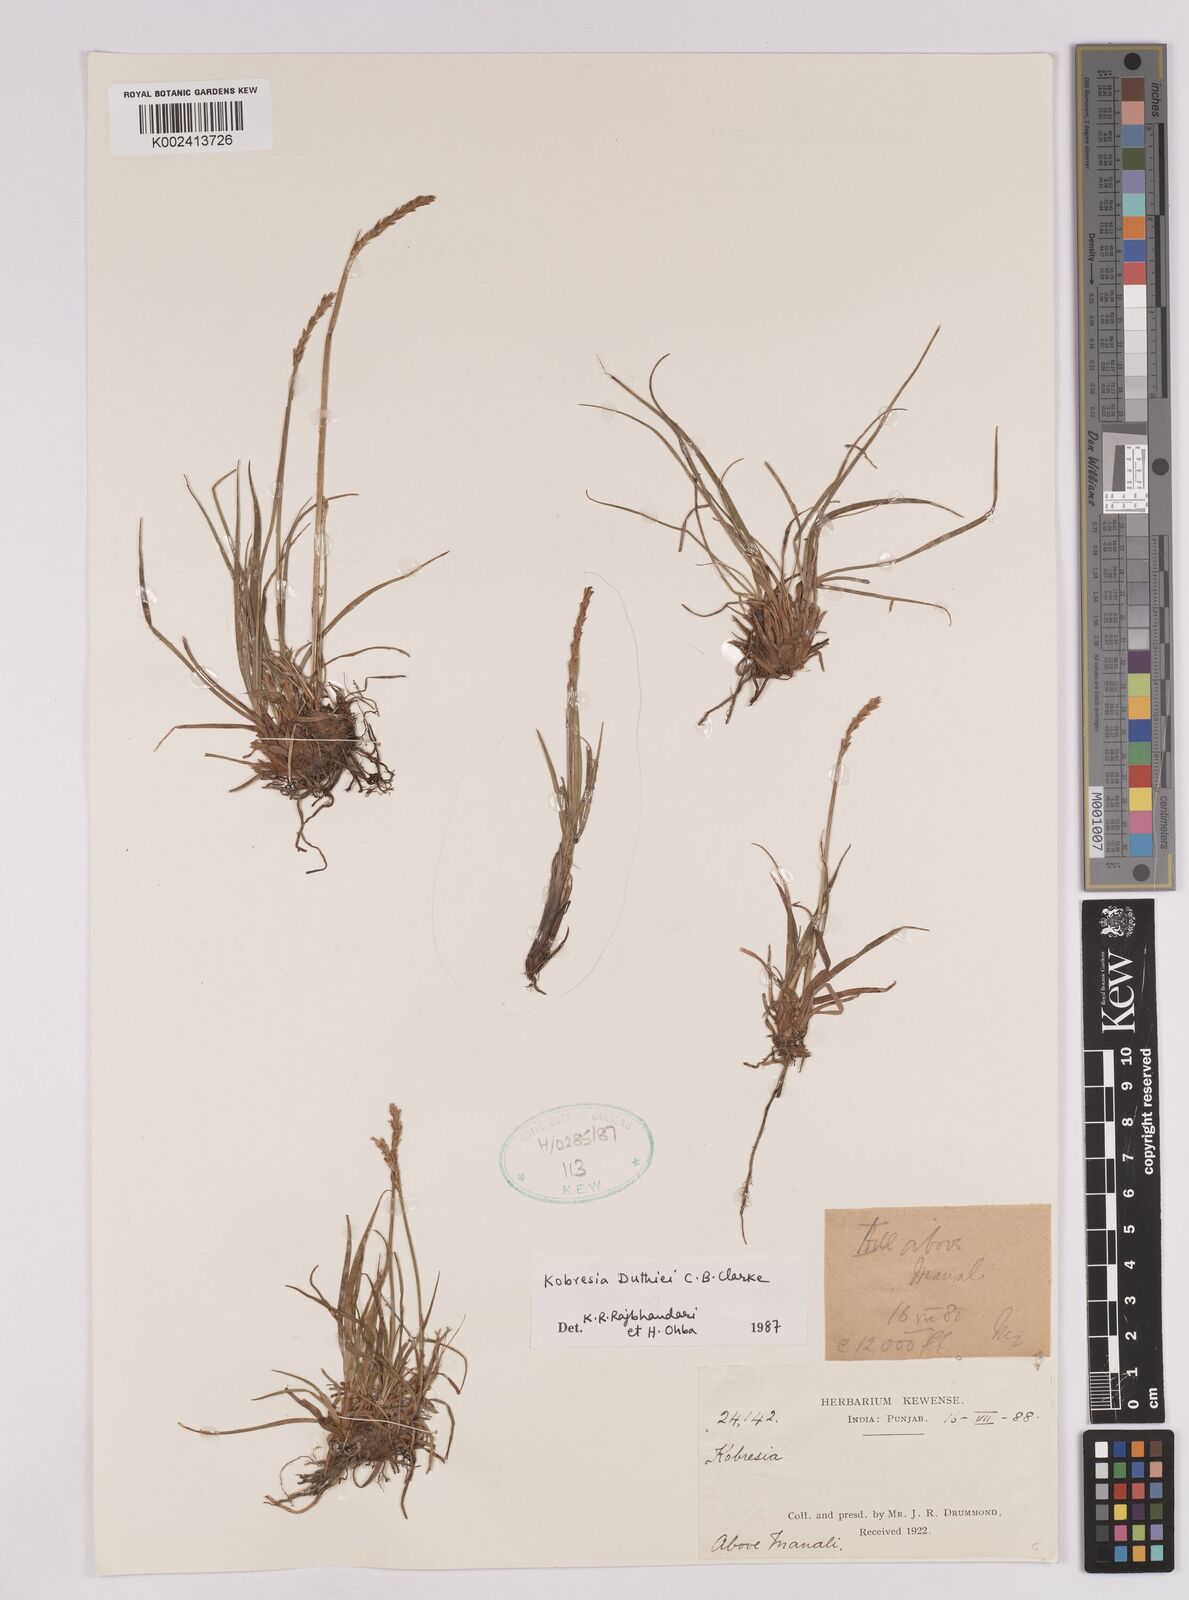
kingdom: Plantae
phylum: Tracheophyta
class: Liliopsida
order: Poales
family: Cyperaceae
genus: Carex
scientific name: Carex clavispica
